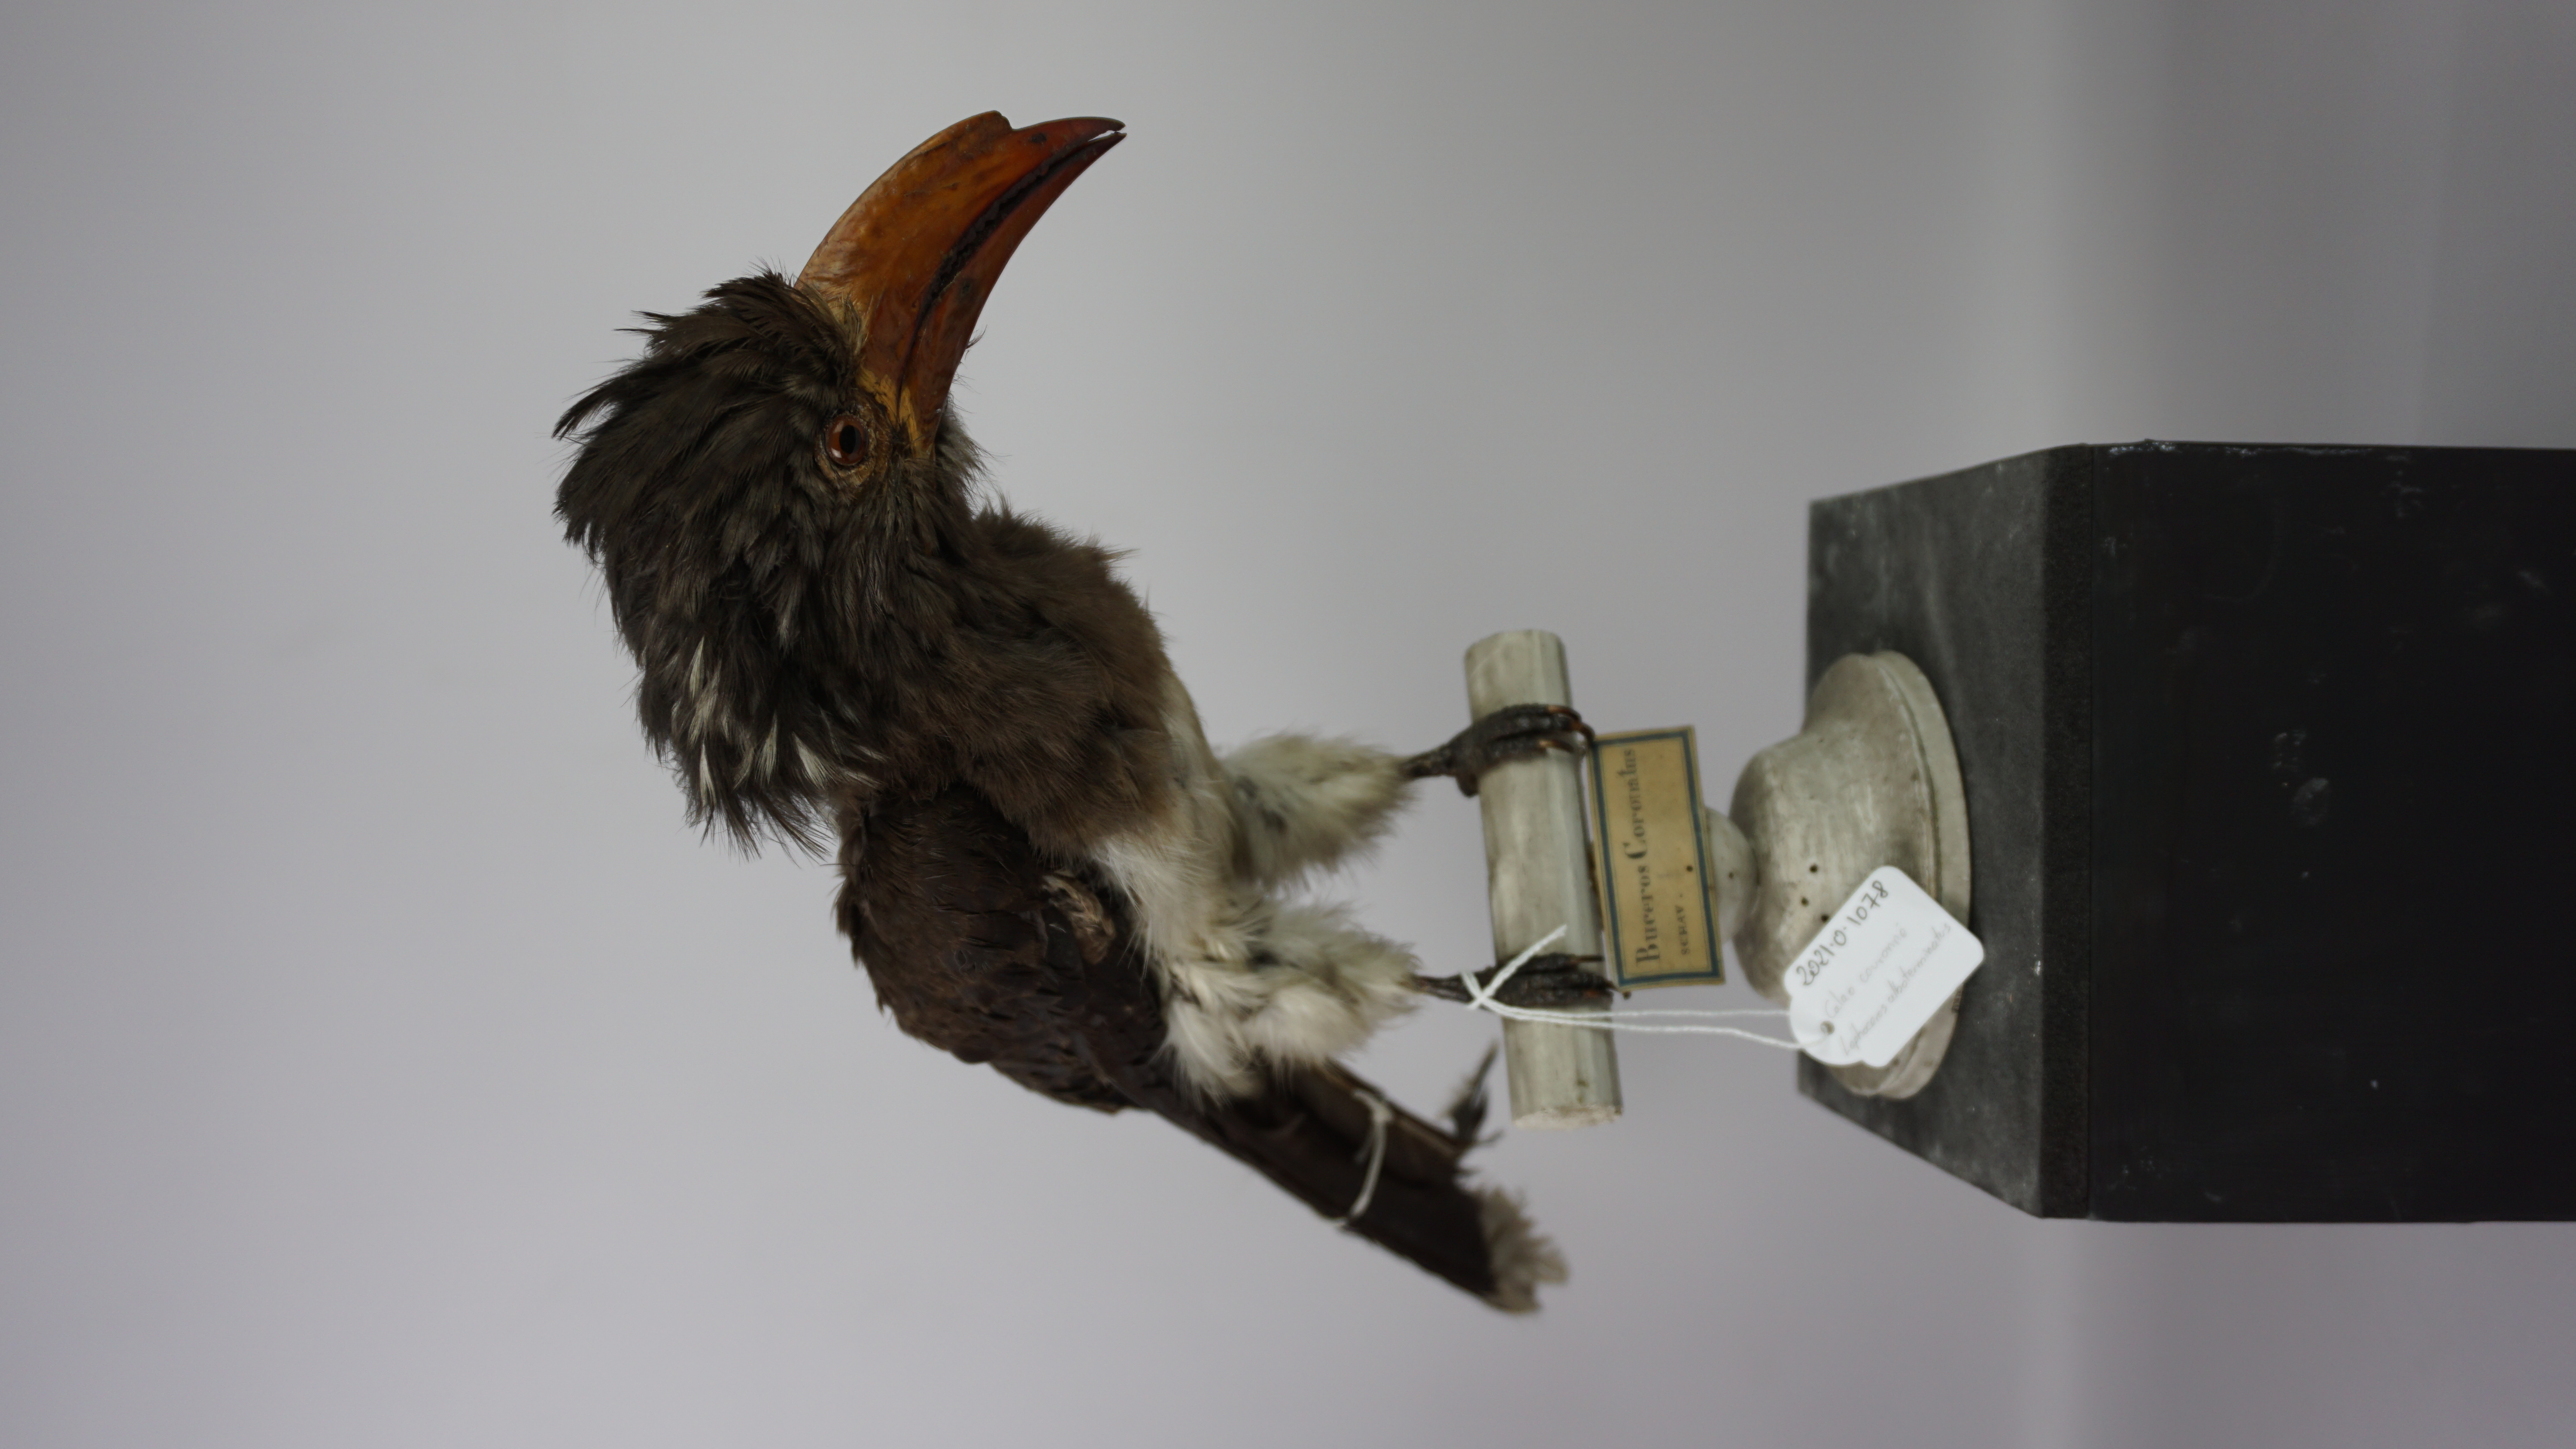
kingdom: Animalia
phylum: Chordata
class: Aves
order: Bucerotiformes
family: Bucerotidae
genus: Lophoceros
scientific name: Lophoceros alboterminatus
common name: Crowned hornbill
